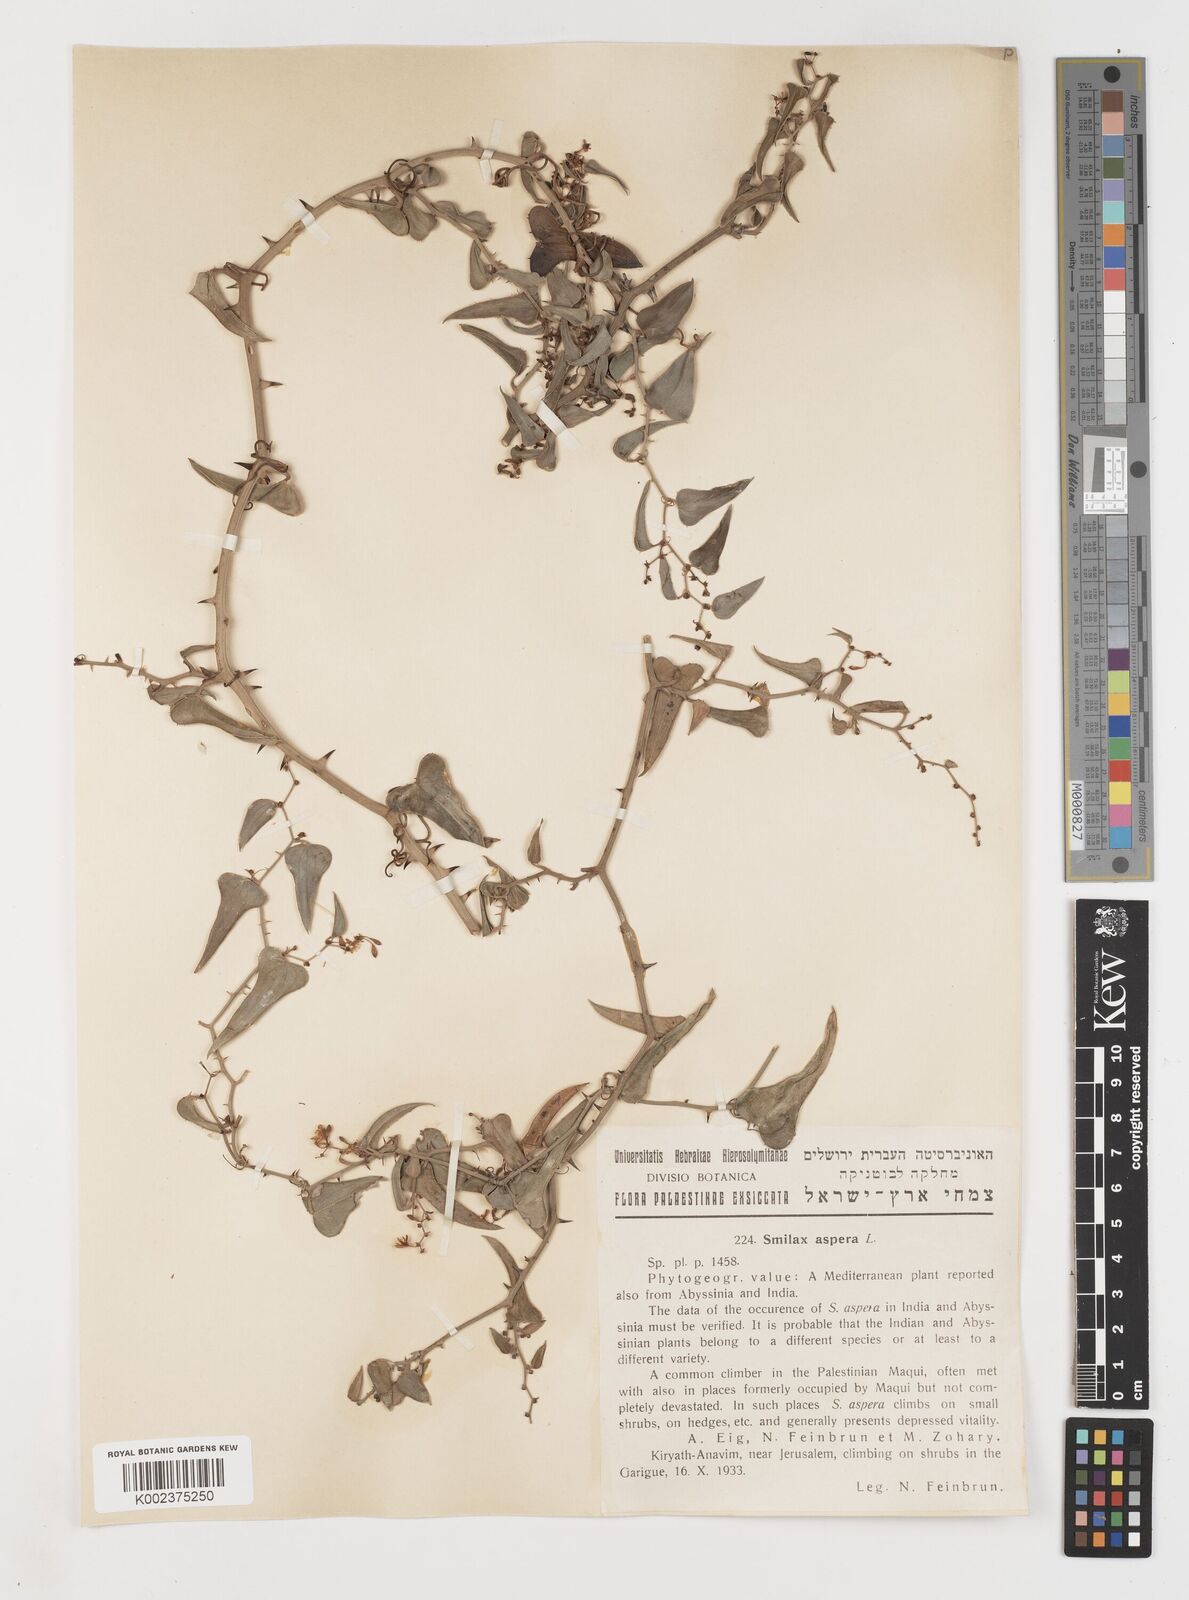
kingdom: Plantae
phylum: Tracheophyta
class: Liliopsida
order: Liliales
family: Smilacaceae
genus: Smilax
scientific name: Smilax aspera
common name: Common smilax
